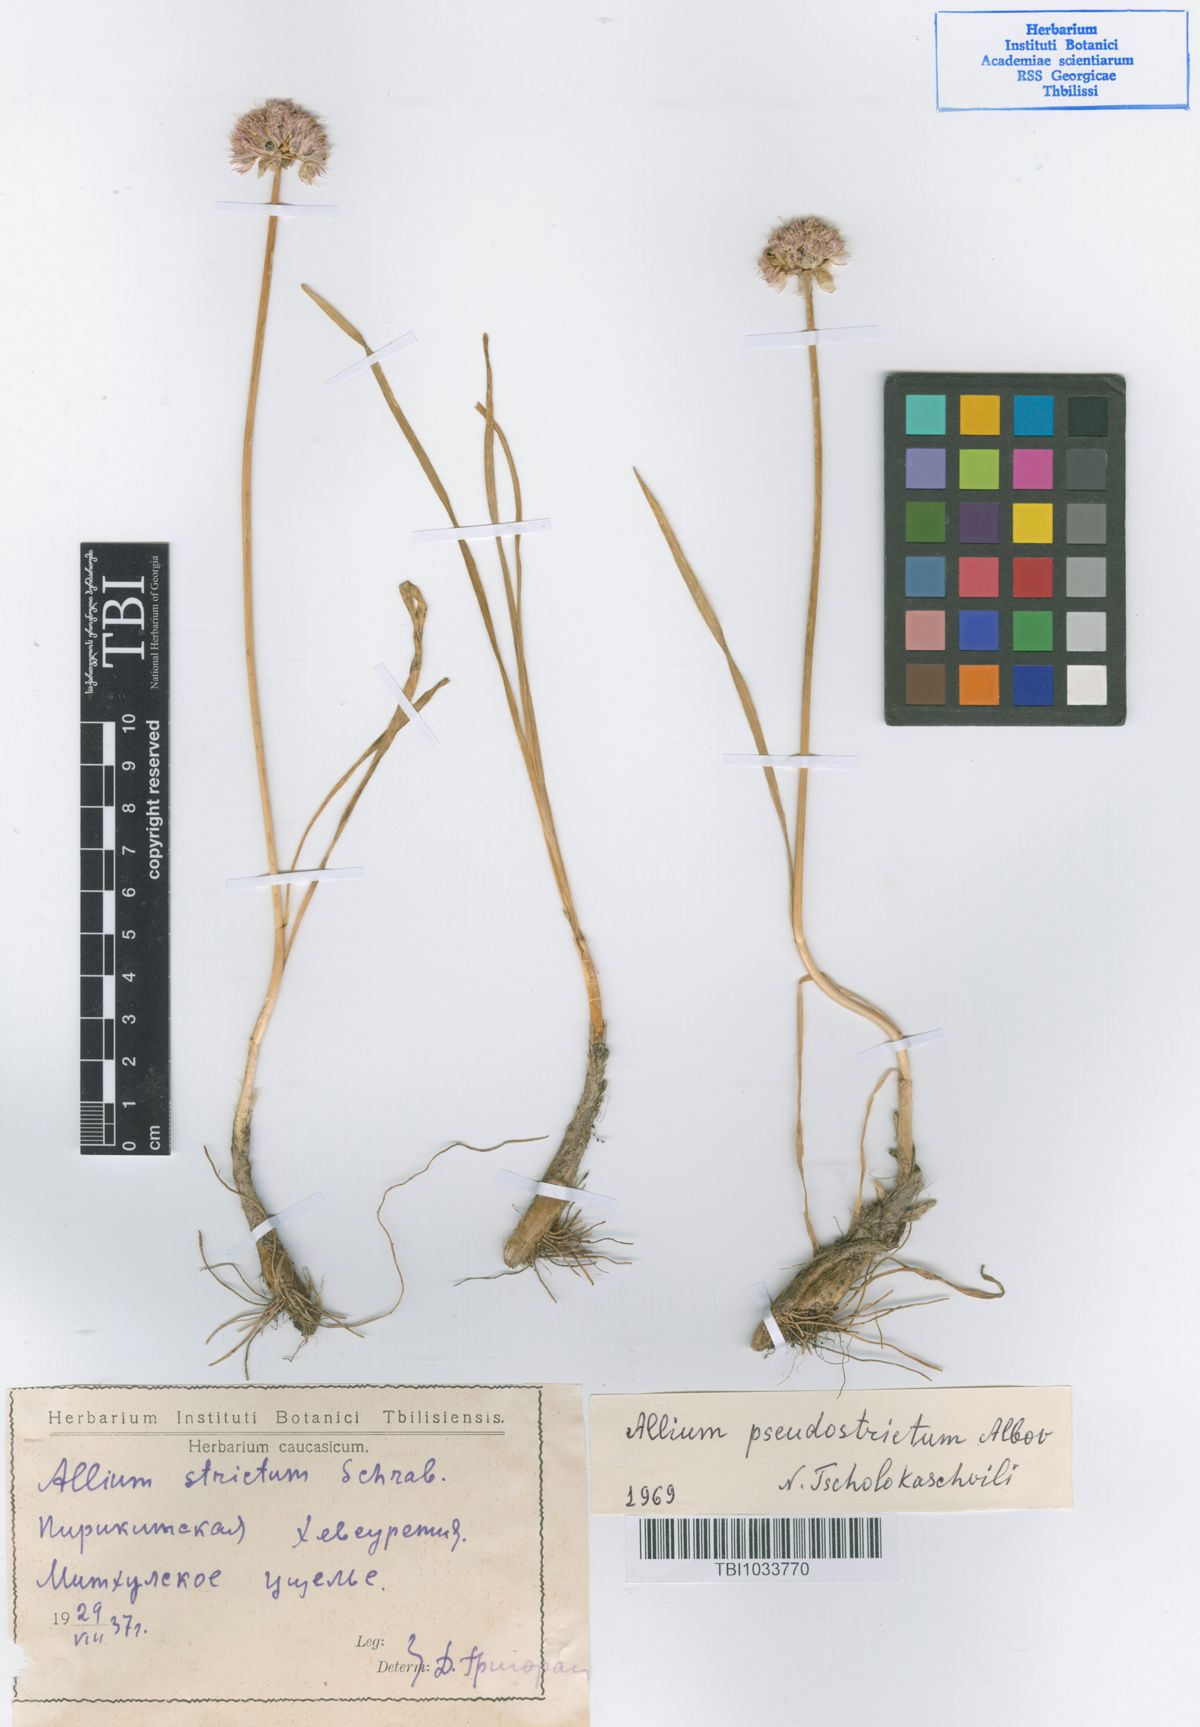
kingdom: Plantae
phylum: Tracheophyta
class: Liliopsida
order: Asparagales
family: Amaryllidaceae
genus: Allium
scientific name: Allium pseudostrictum
